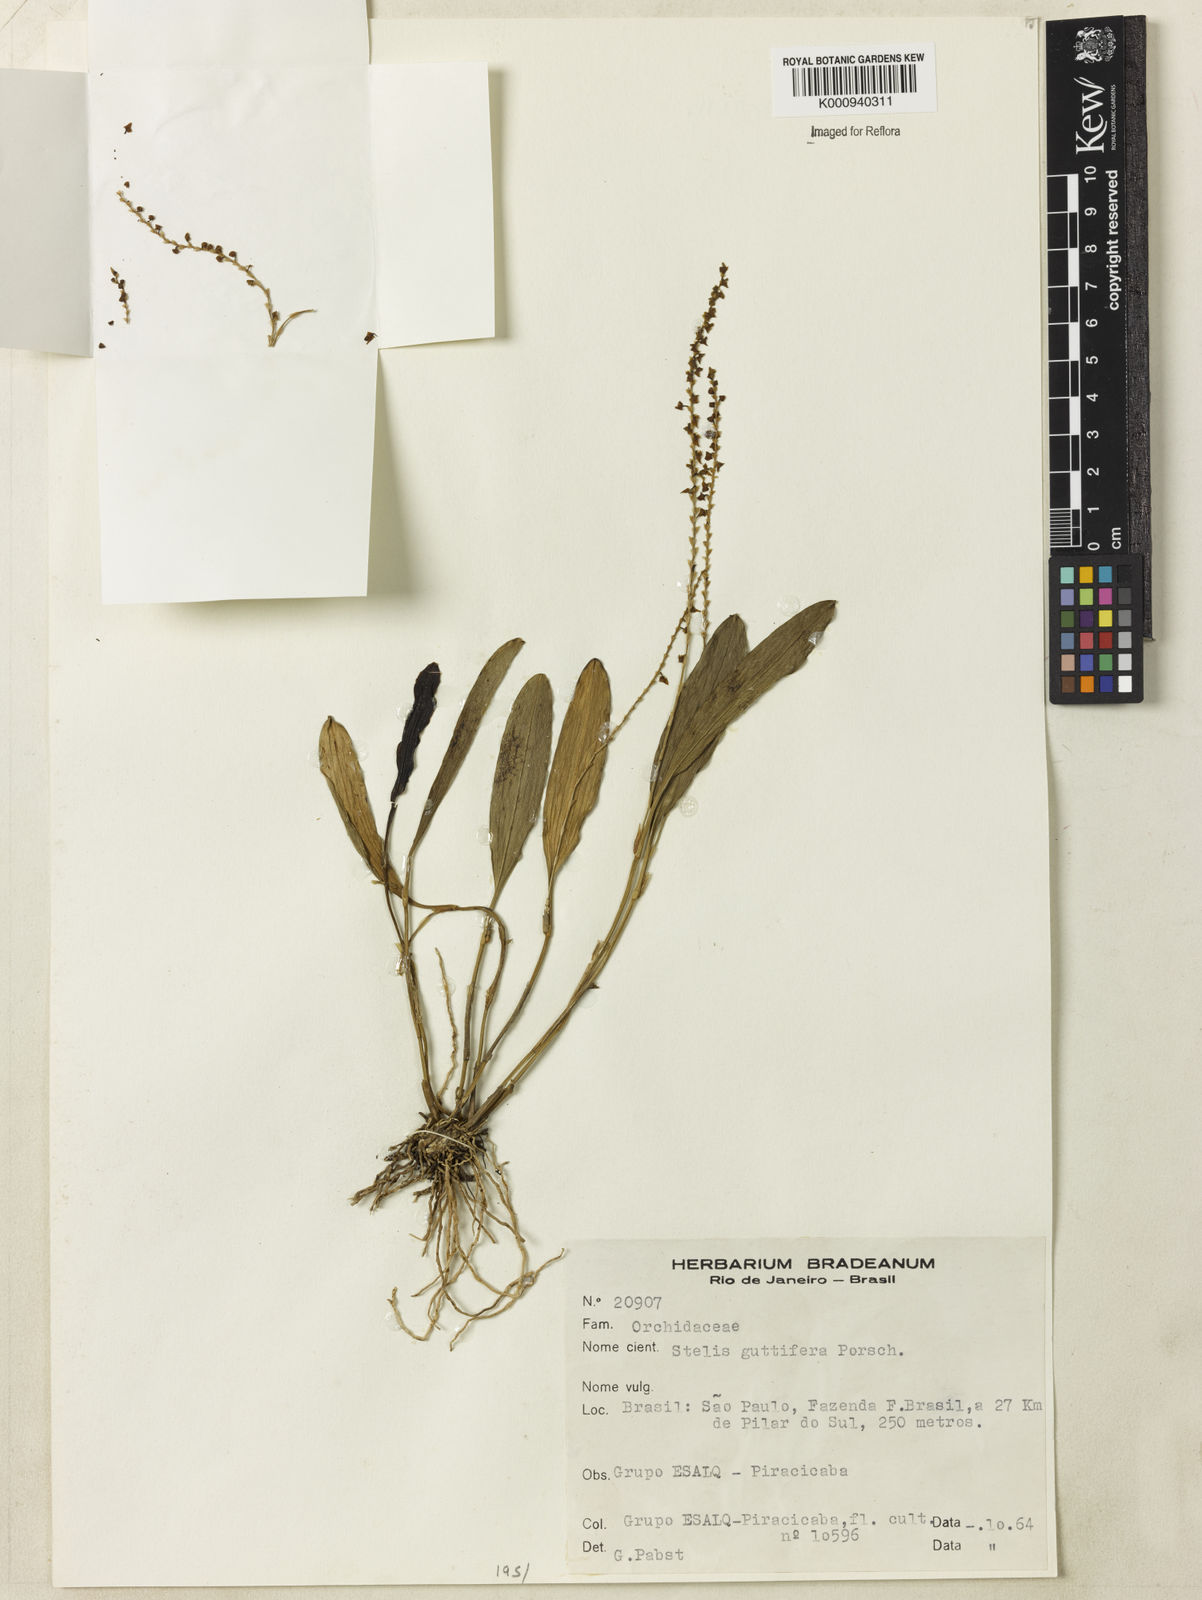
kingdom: Plantae
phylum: Tracheophyta
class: Liliopsida
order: Asparagales
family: Orchidaceae
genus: Stelis
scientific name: Stelis grandiflora
